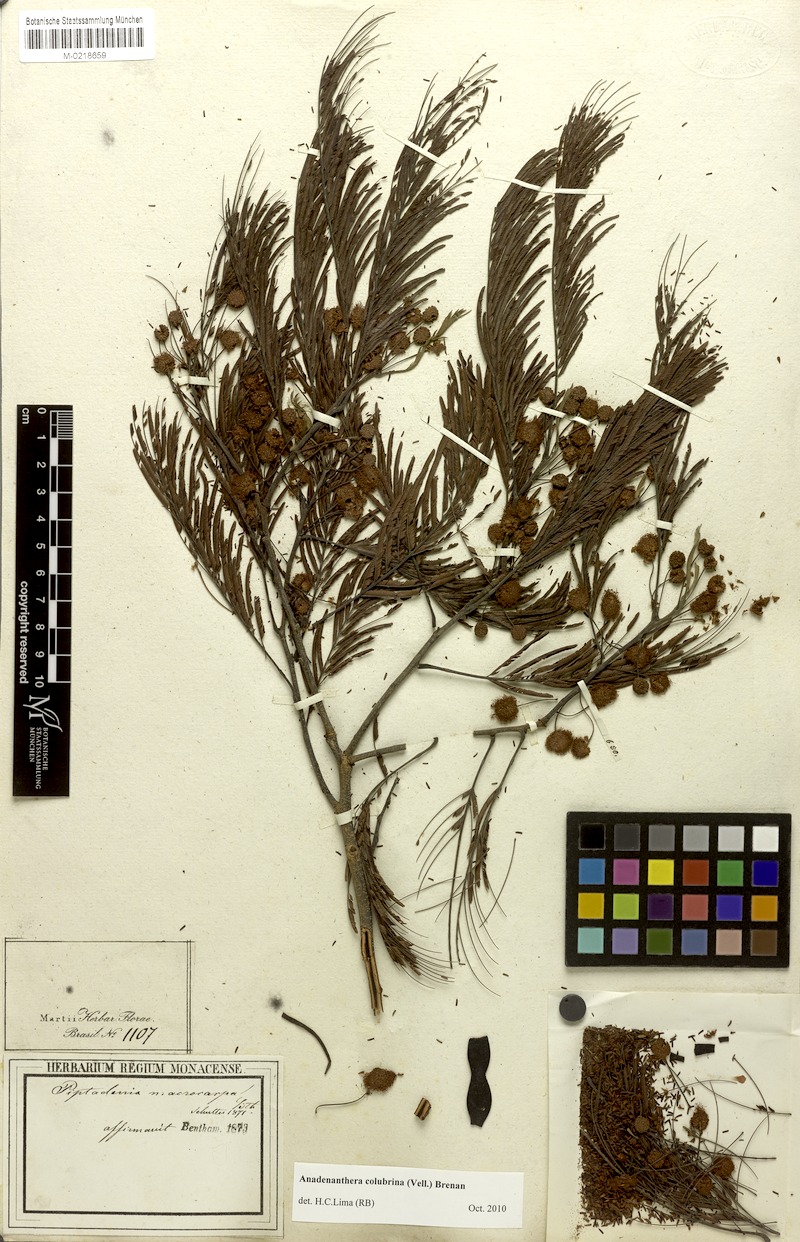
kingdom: Plantae
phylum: Tracheophyta
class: Magnoliopsida
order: Fabales
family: Fabaceae
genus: Anadenanthera
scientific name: Anadenanthera colubrina
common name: Curupay
